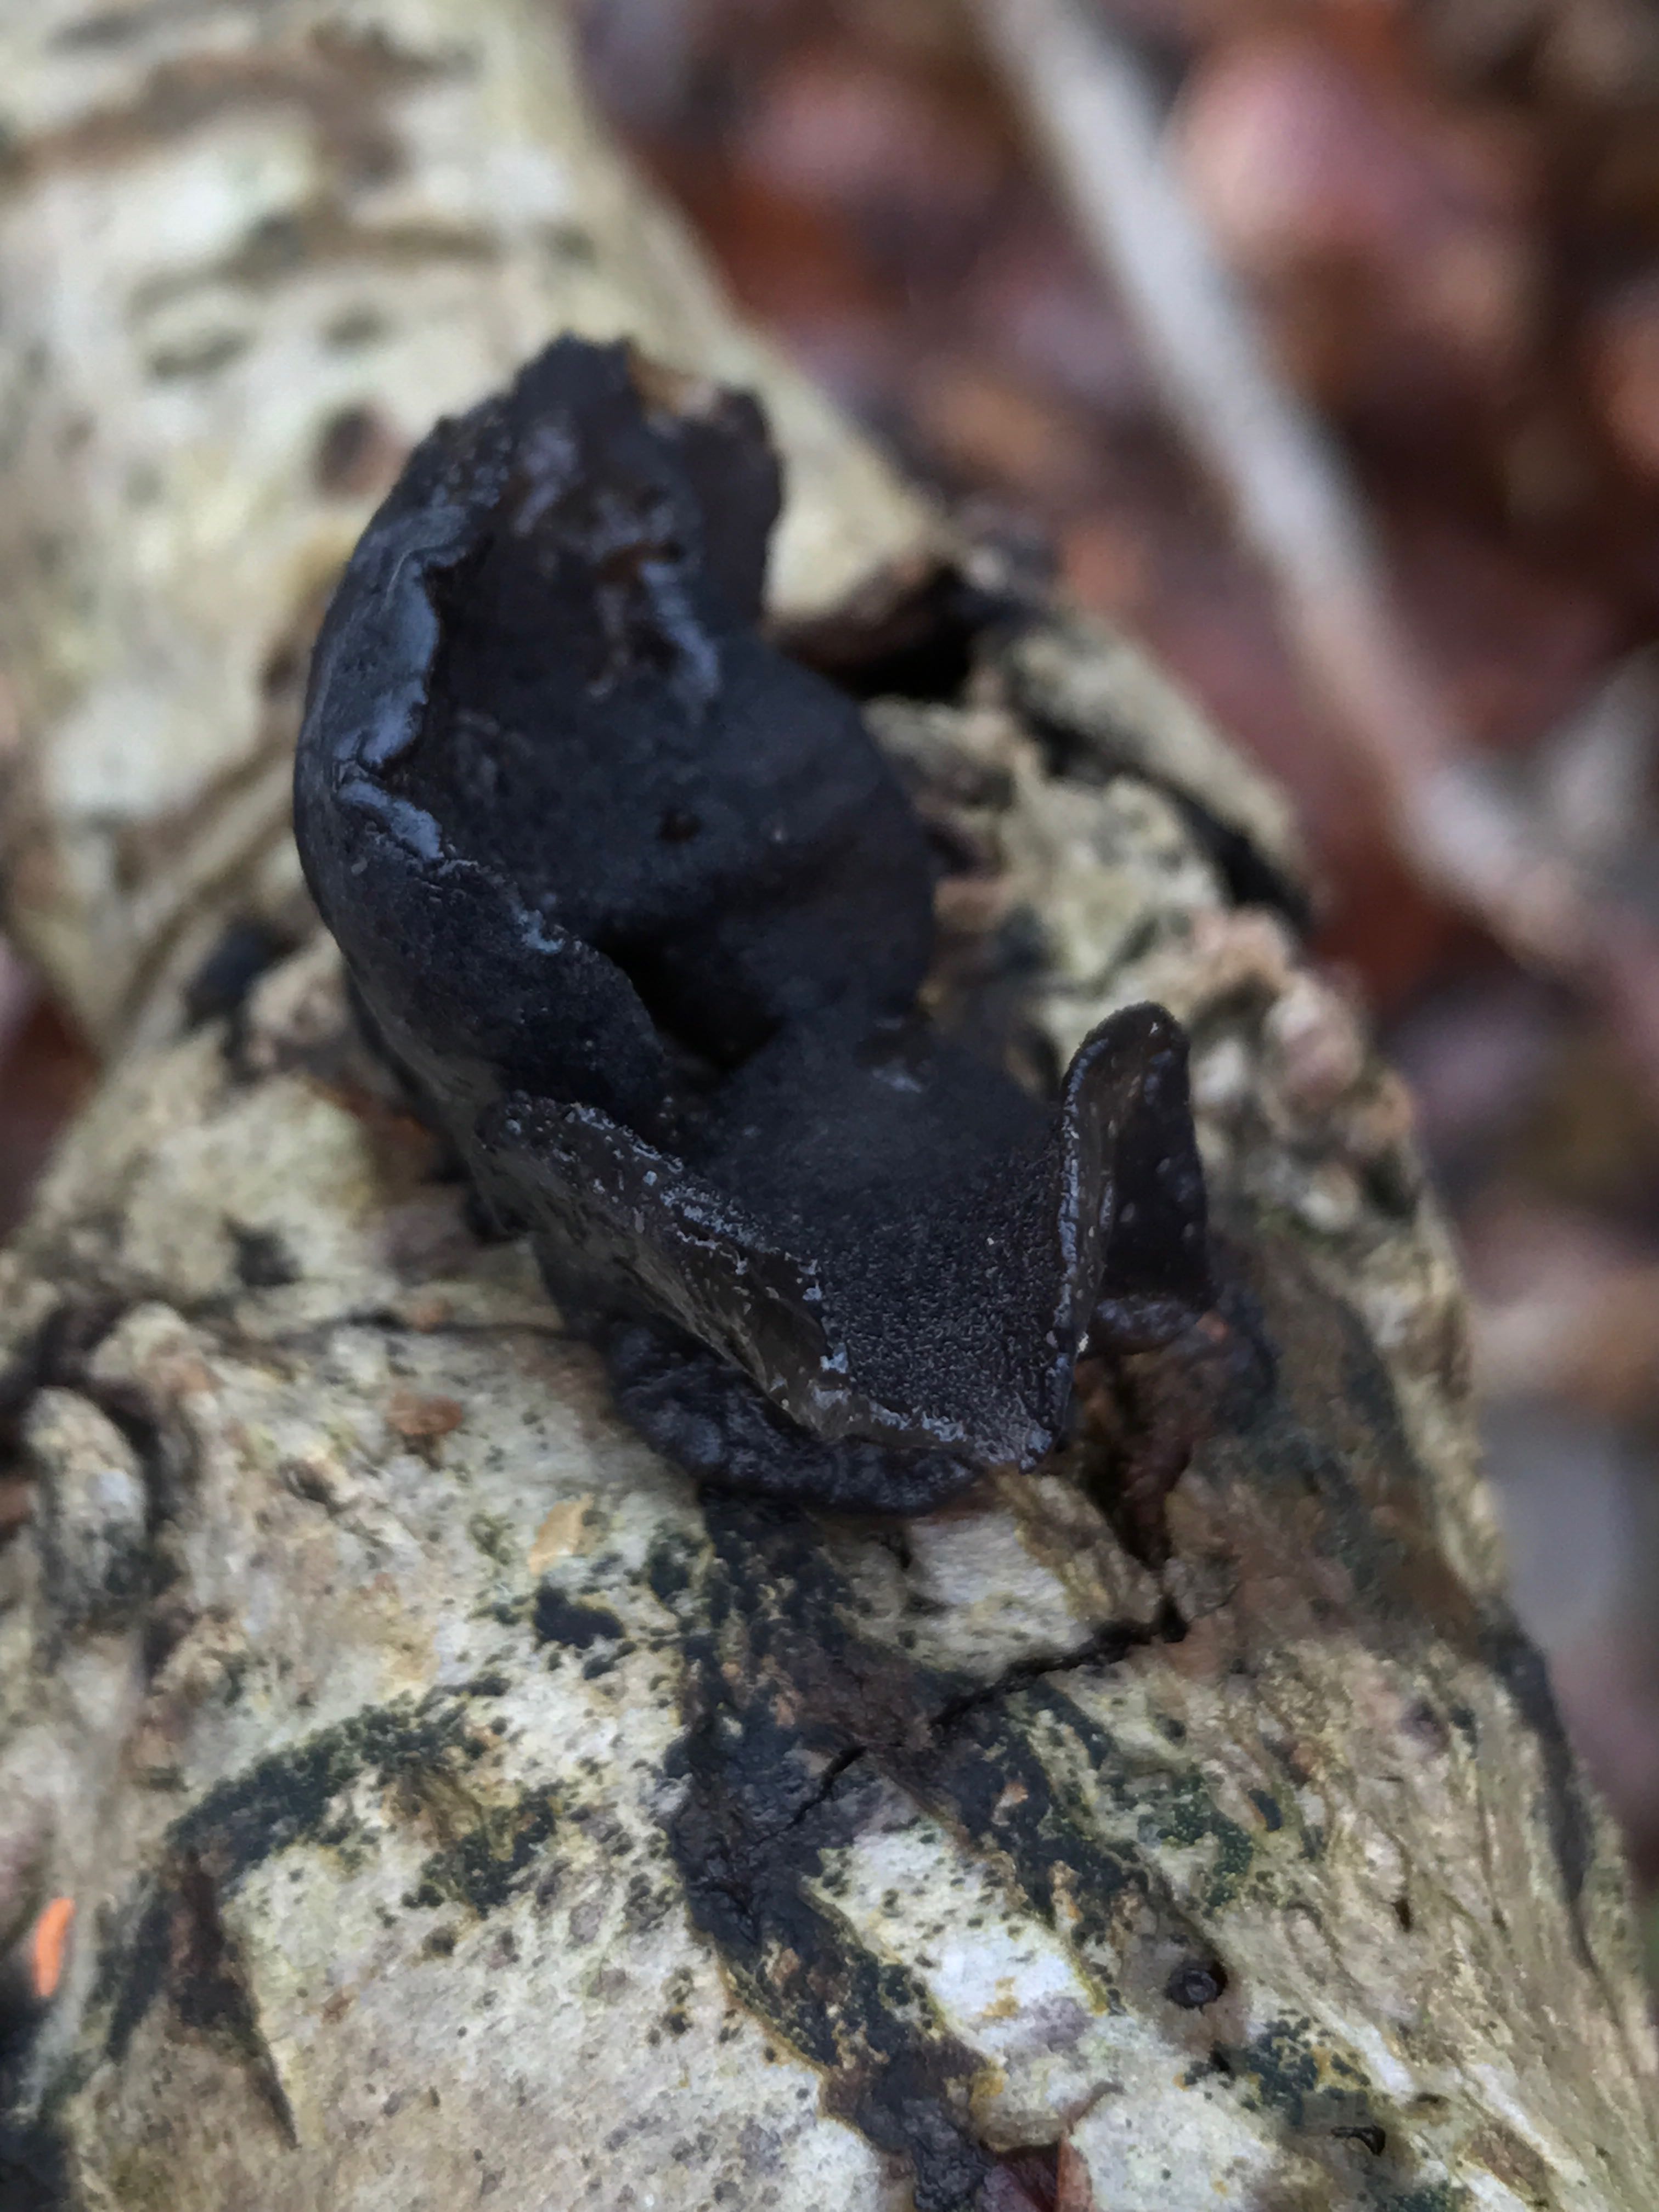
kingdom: Fungi
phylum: Basidiomycota
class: Agaricomycetes
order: Auriculariales
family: Auriculariaceae
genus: Exidia
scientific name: Exidia glandulosa
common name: ege-bævretop
